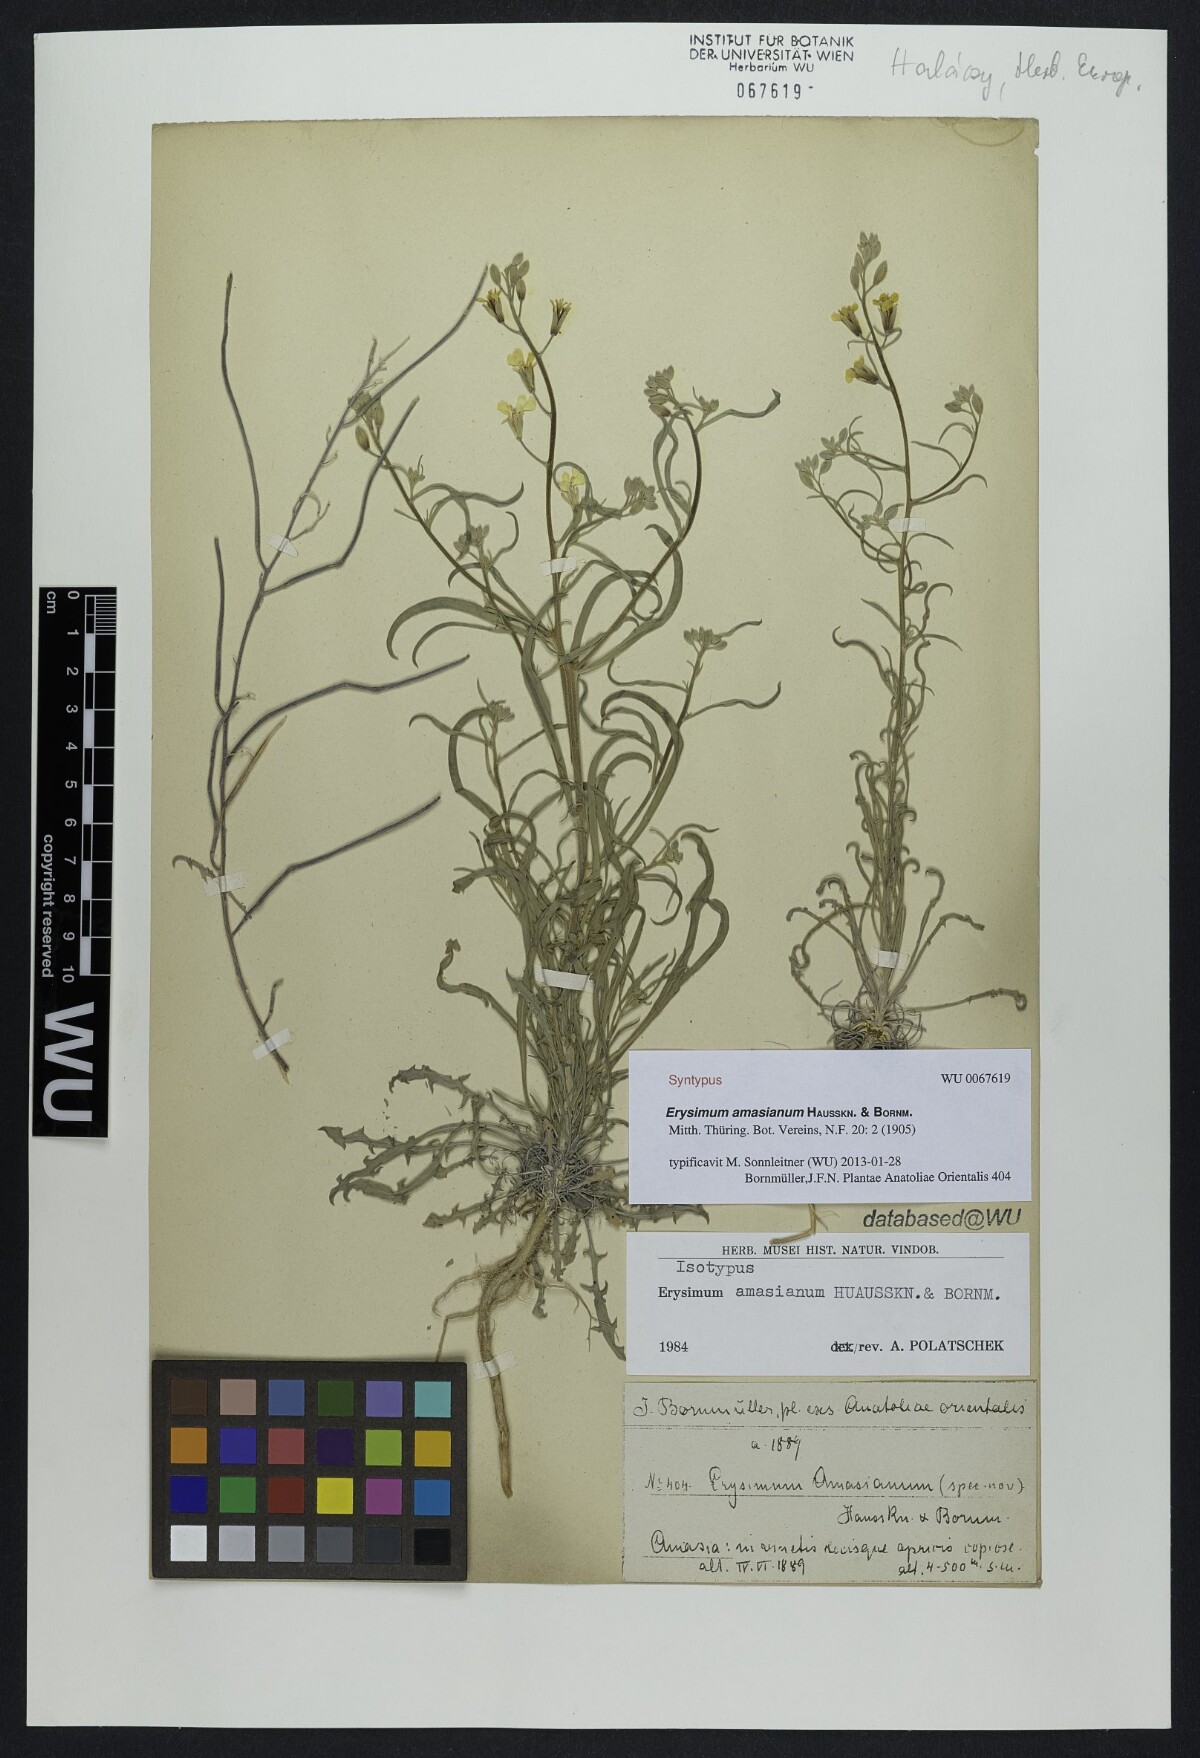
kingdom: Plantae
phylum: Tracheophyta
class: Magnoliopsida
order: Brassicales
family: Brassicaceae
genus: Erysimum
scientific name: Erysimum amasianum
